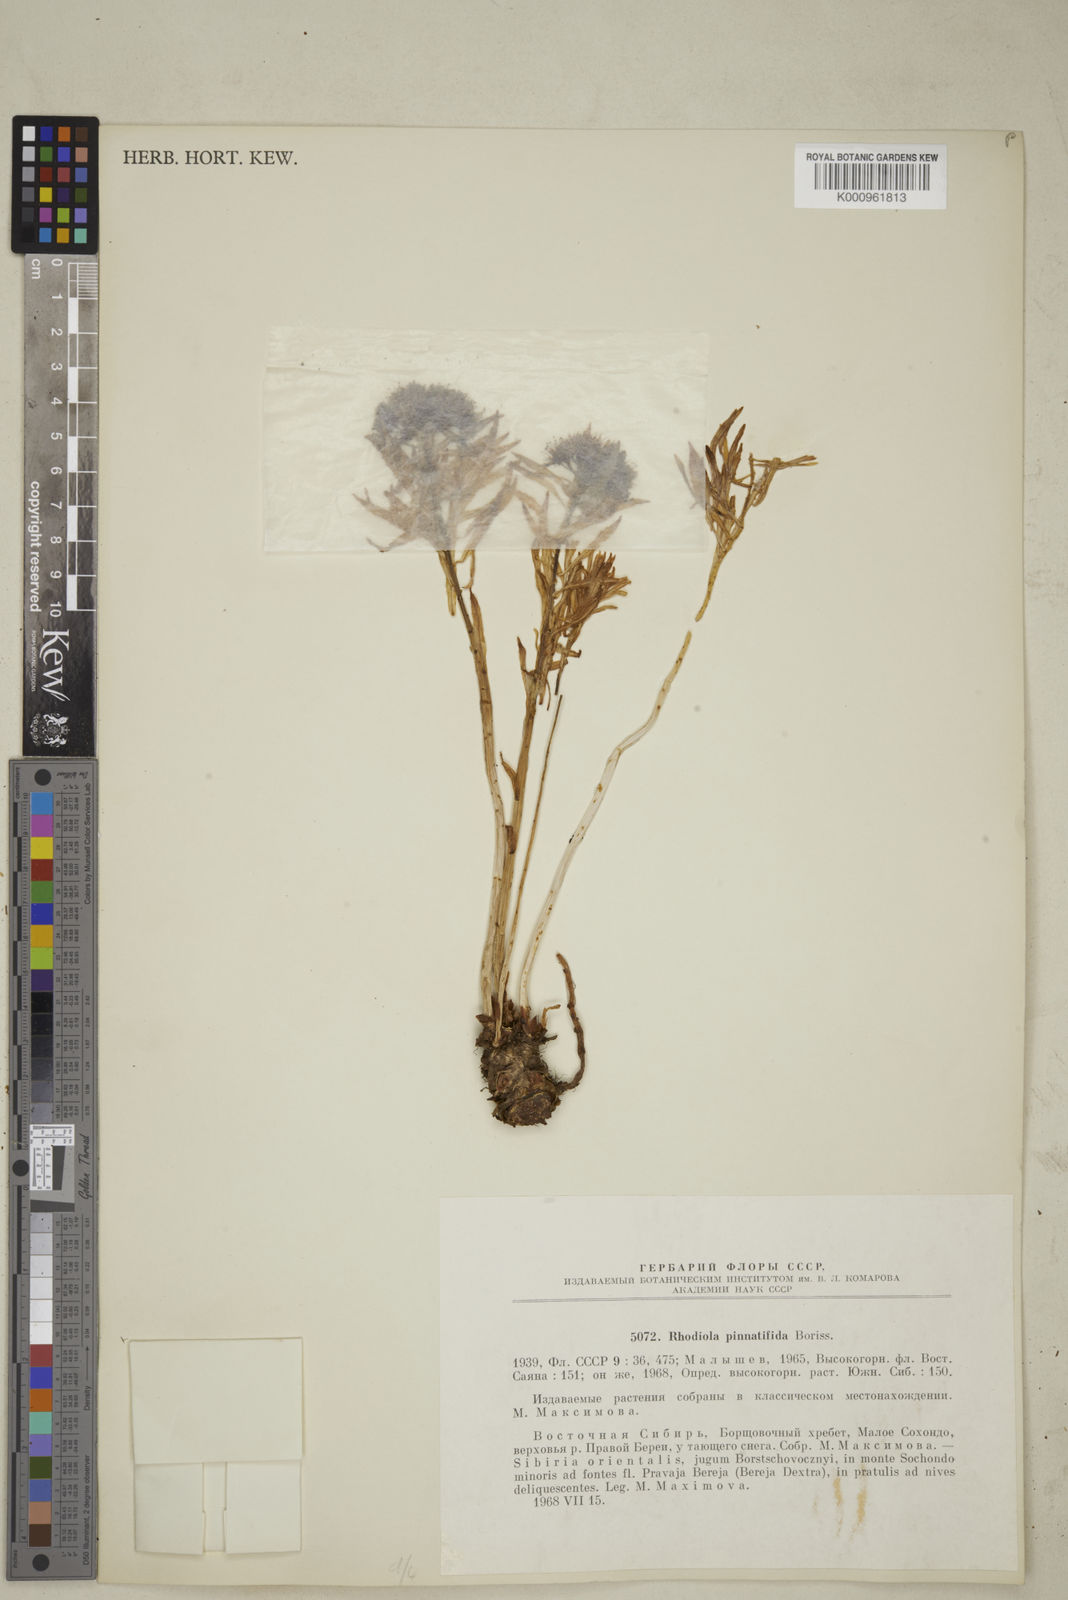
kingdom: Plantae
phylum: Tracheophyta
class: Magnoliopsida
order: Saxifragales
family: Crassulaceae
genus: Rhodiola
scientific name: Rhodiola stephani
